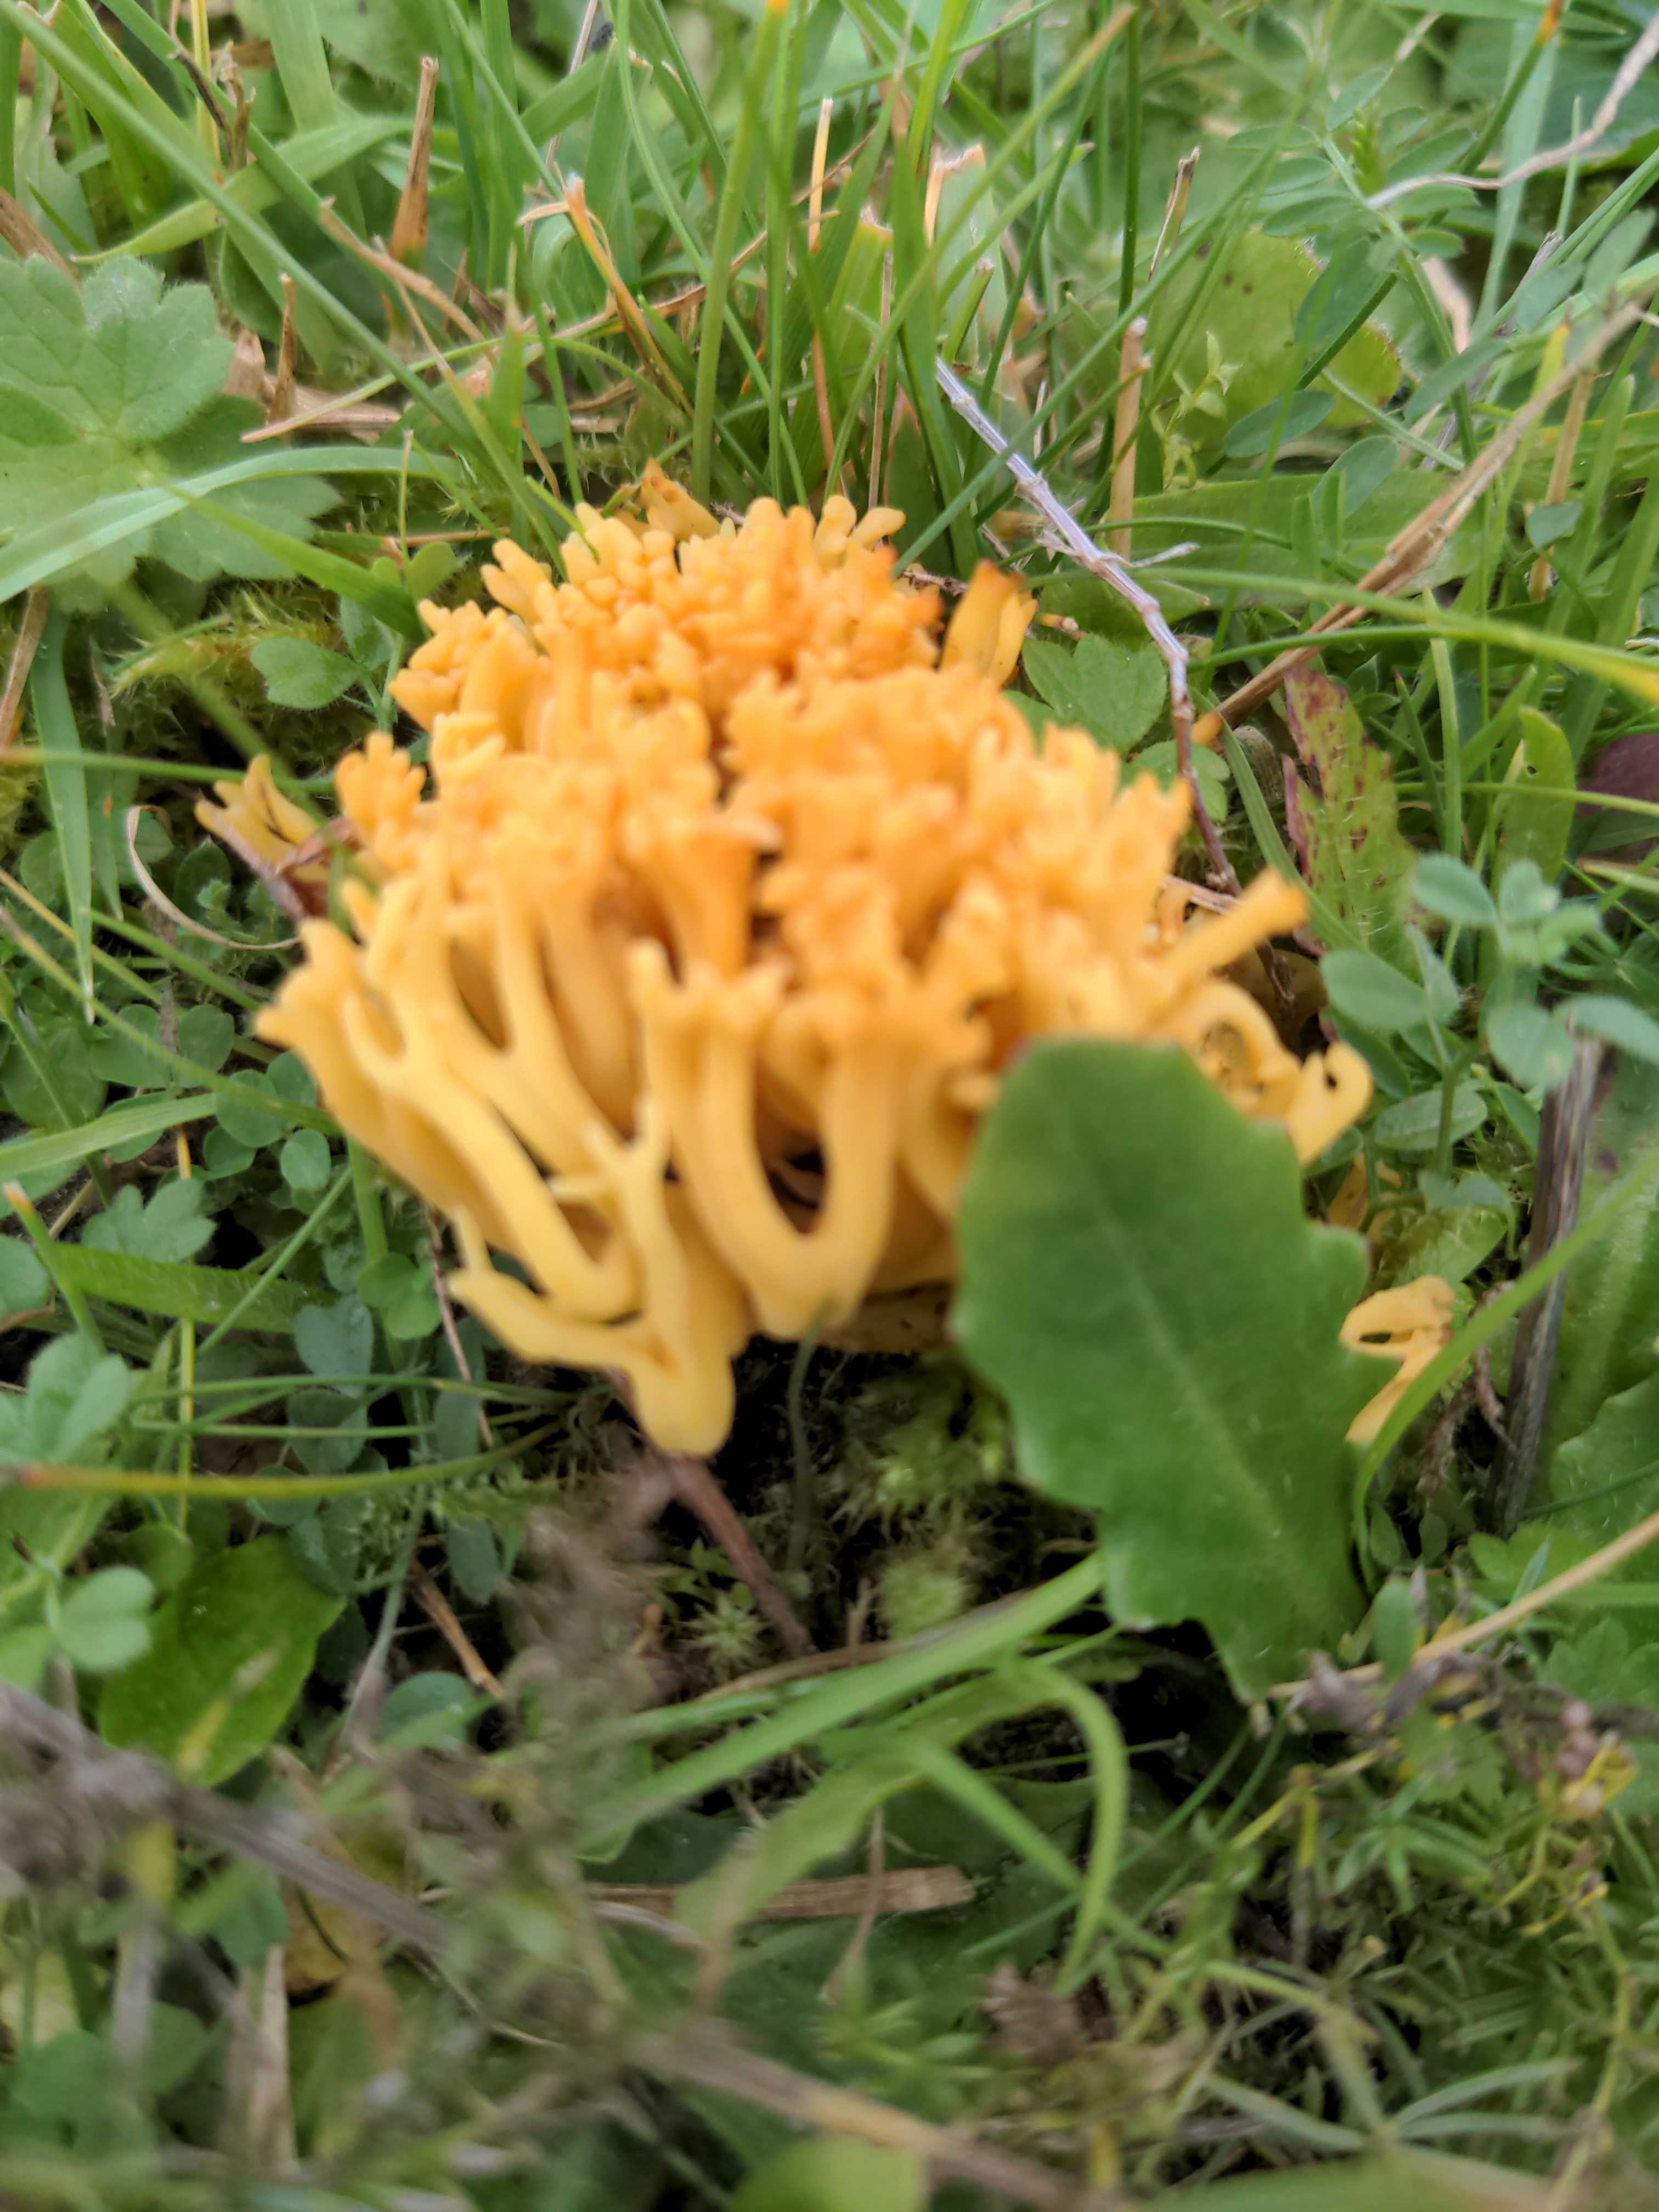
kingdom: Fungi
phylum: Basidiomycota
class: Agaricomycetes
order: Agaricales
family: Clavariaceae
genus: Clavulinopsis
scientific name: Clavulinopsis corniculata
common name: eng-køllesvamp
